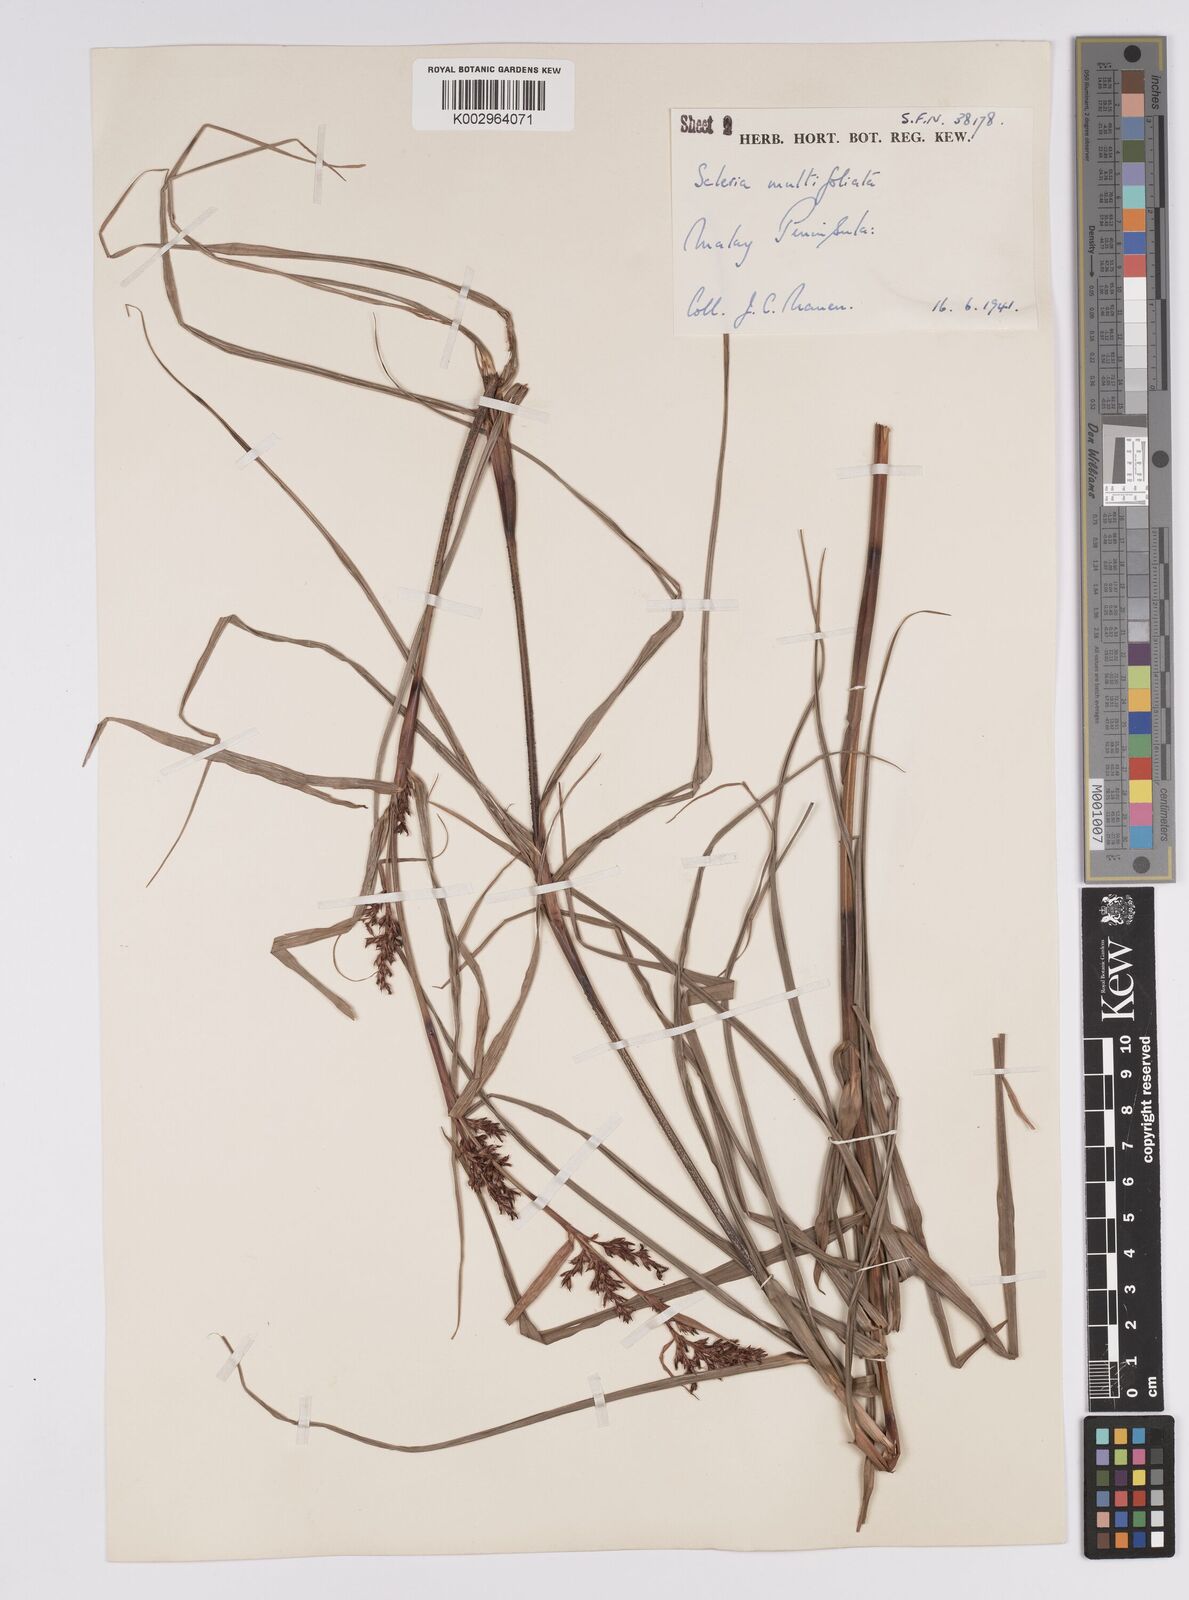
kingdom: Plantae
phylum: Tracheophyta
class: Liliopsida
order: Poales
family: Cyperaceae
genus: Scleria
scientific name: Scleria purpurascens
